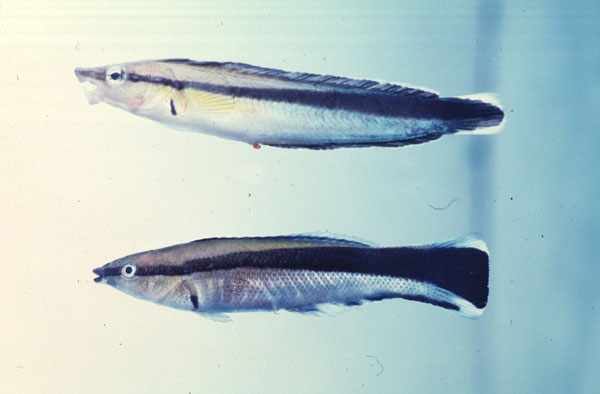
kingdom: Animalia
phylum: Chordata
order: Perciformes
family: Blenniidae
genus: Aspidontus
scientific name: Aspidontus tractus
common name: Mimic blenny
